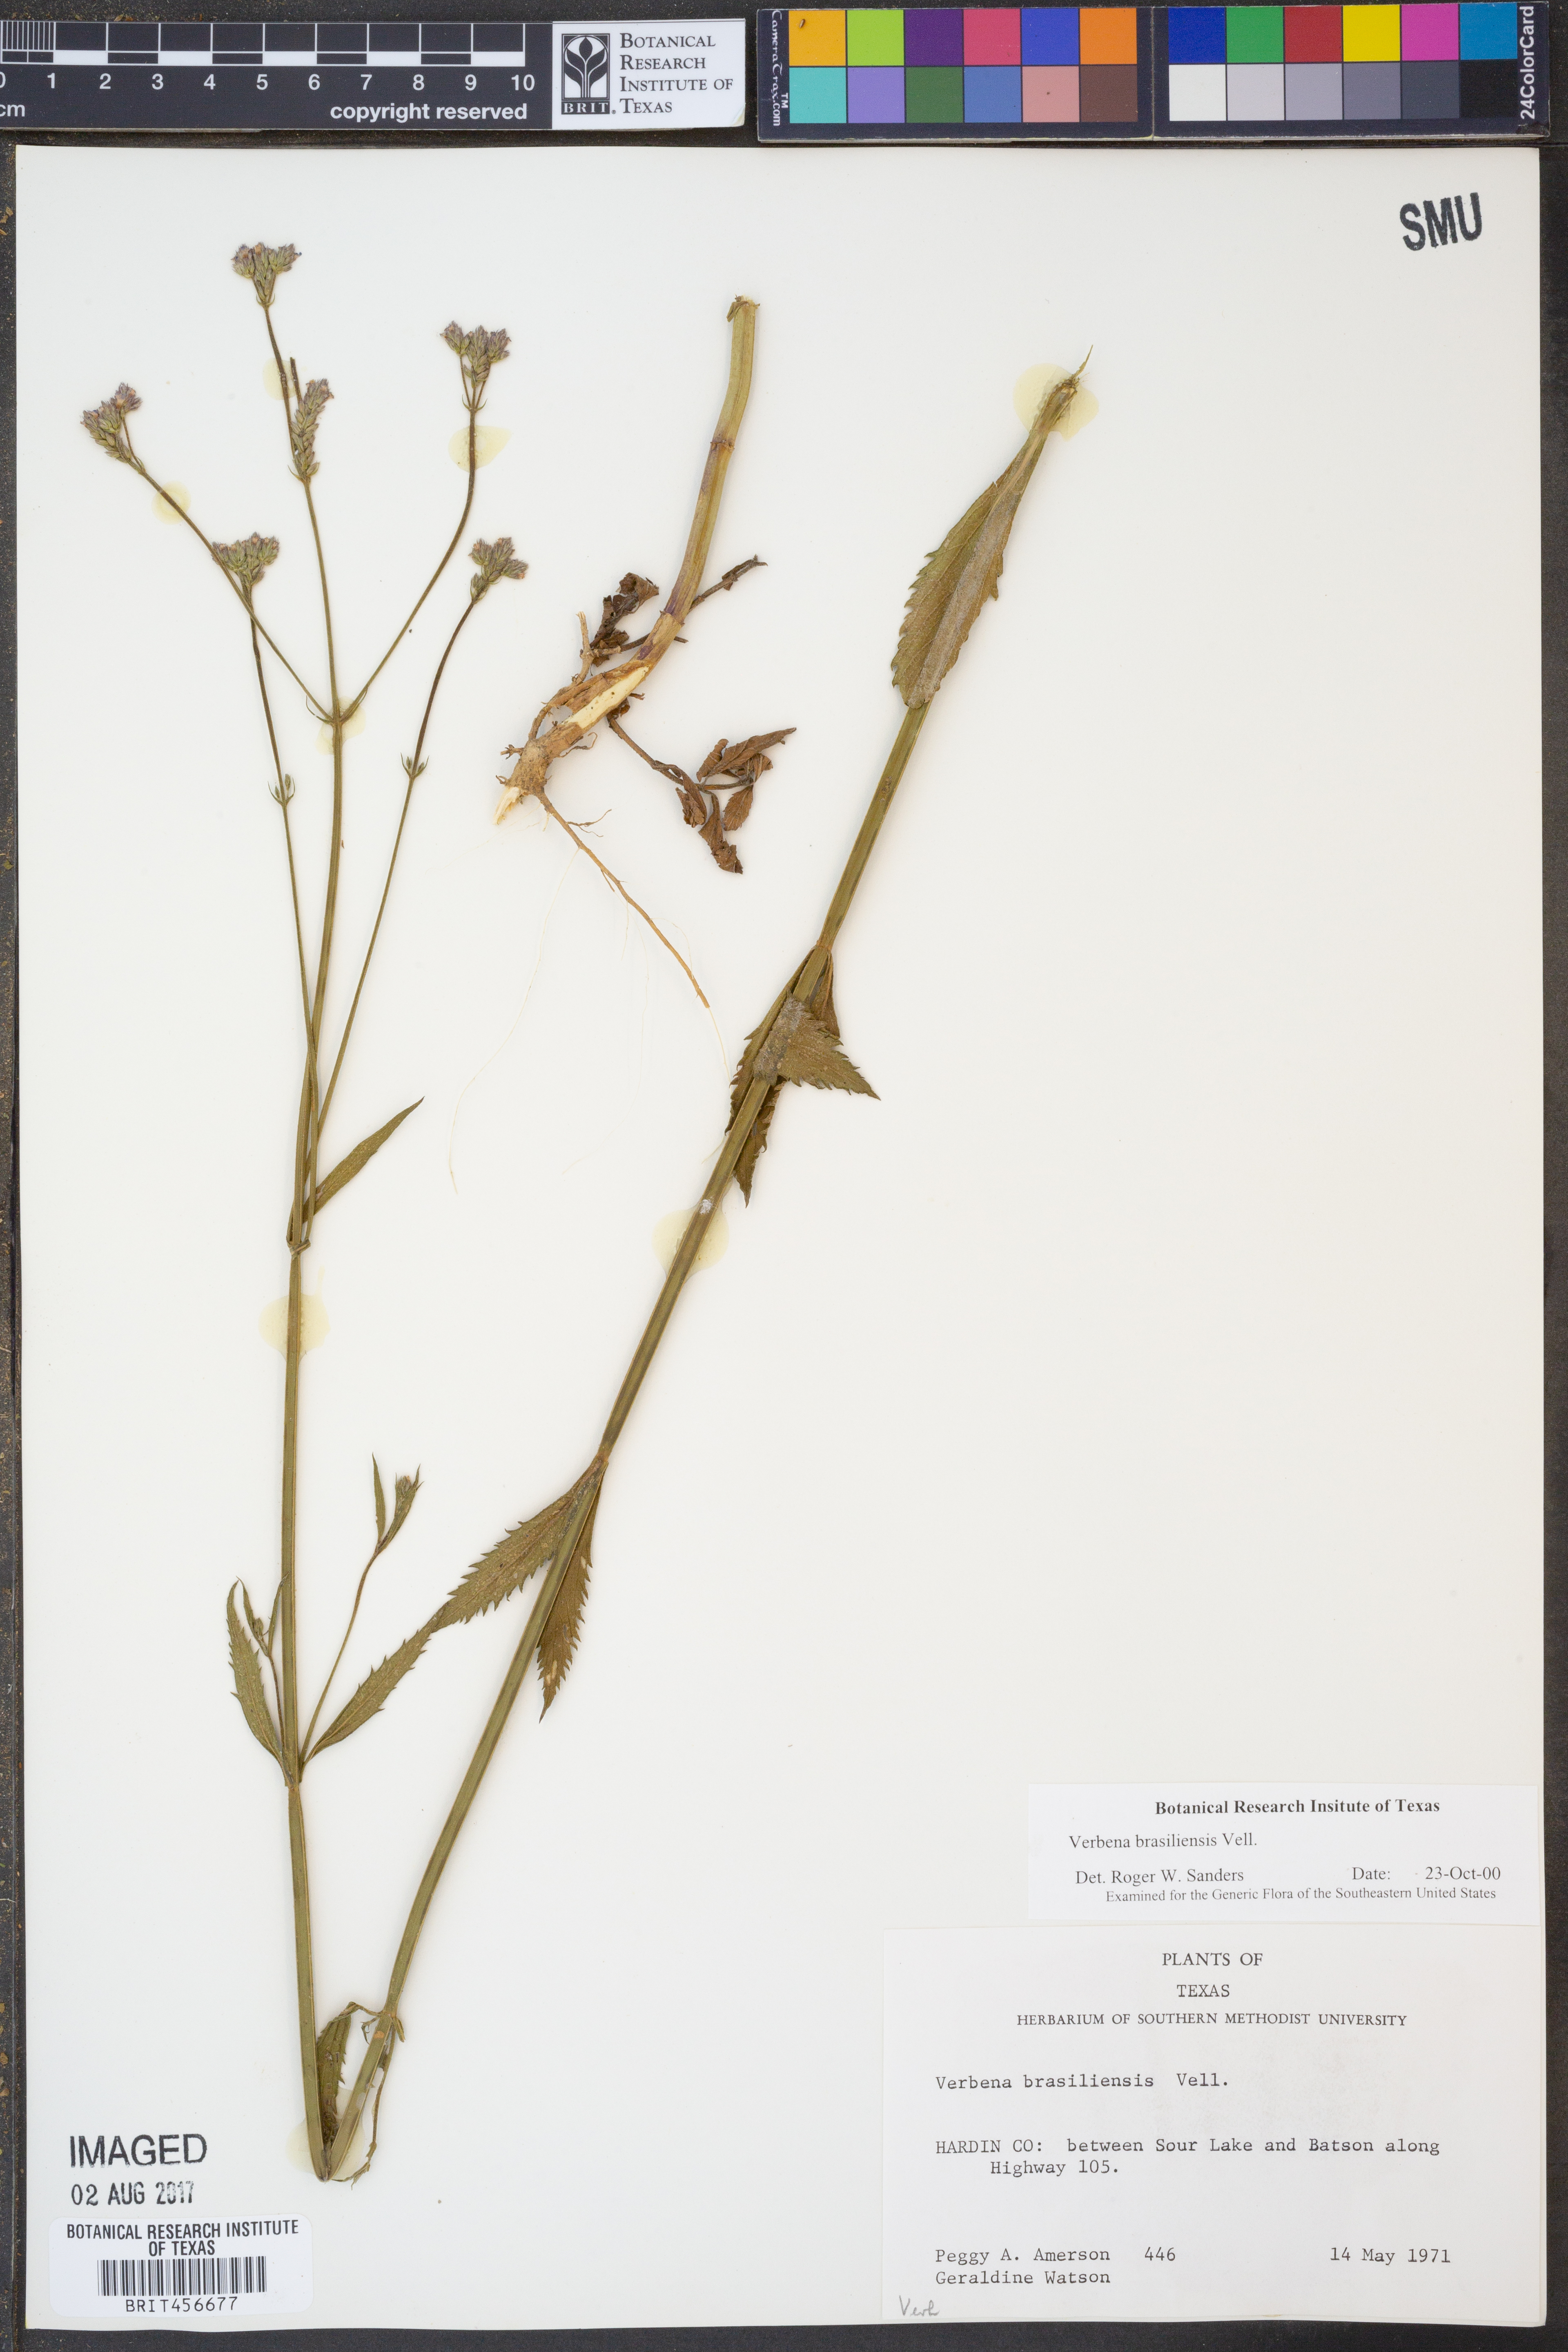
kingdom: Plantae
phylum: Tracheophyta
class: Magnoliopsida
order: Lamiales
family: Verbenaceae
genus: Verbena
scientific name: Verbena brasiliensis
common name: Brazilian vervain
